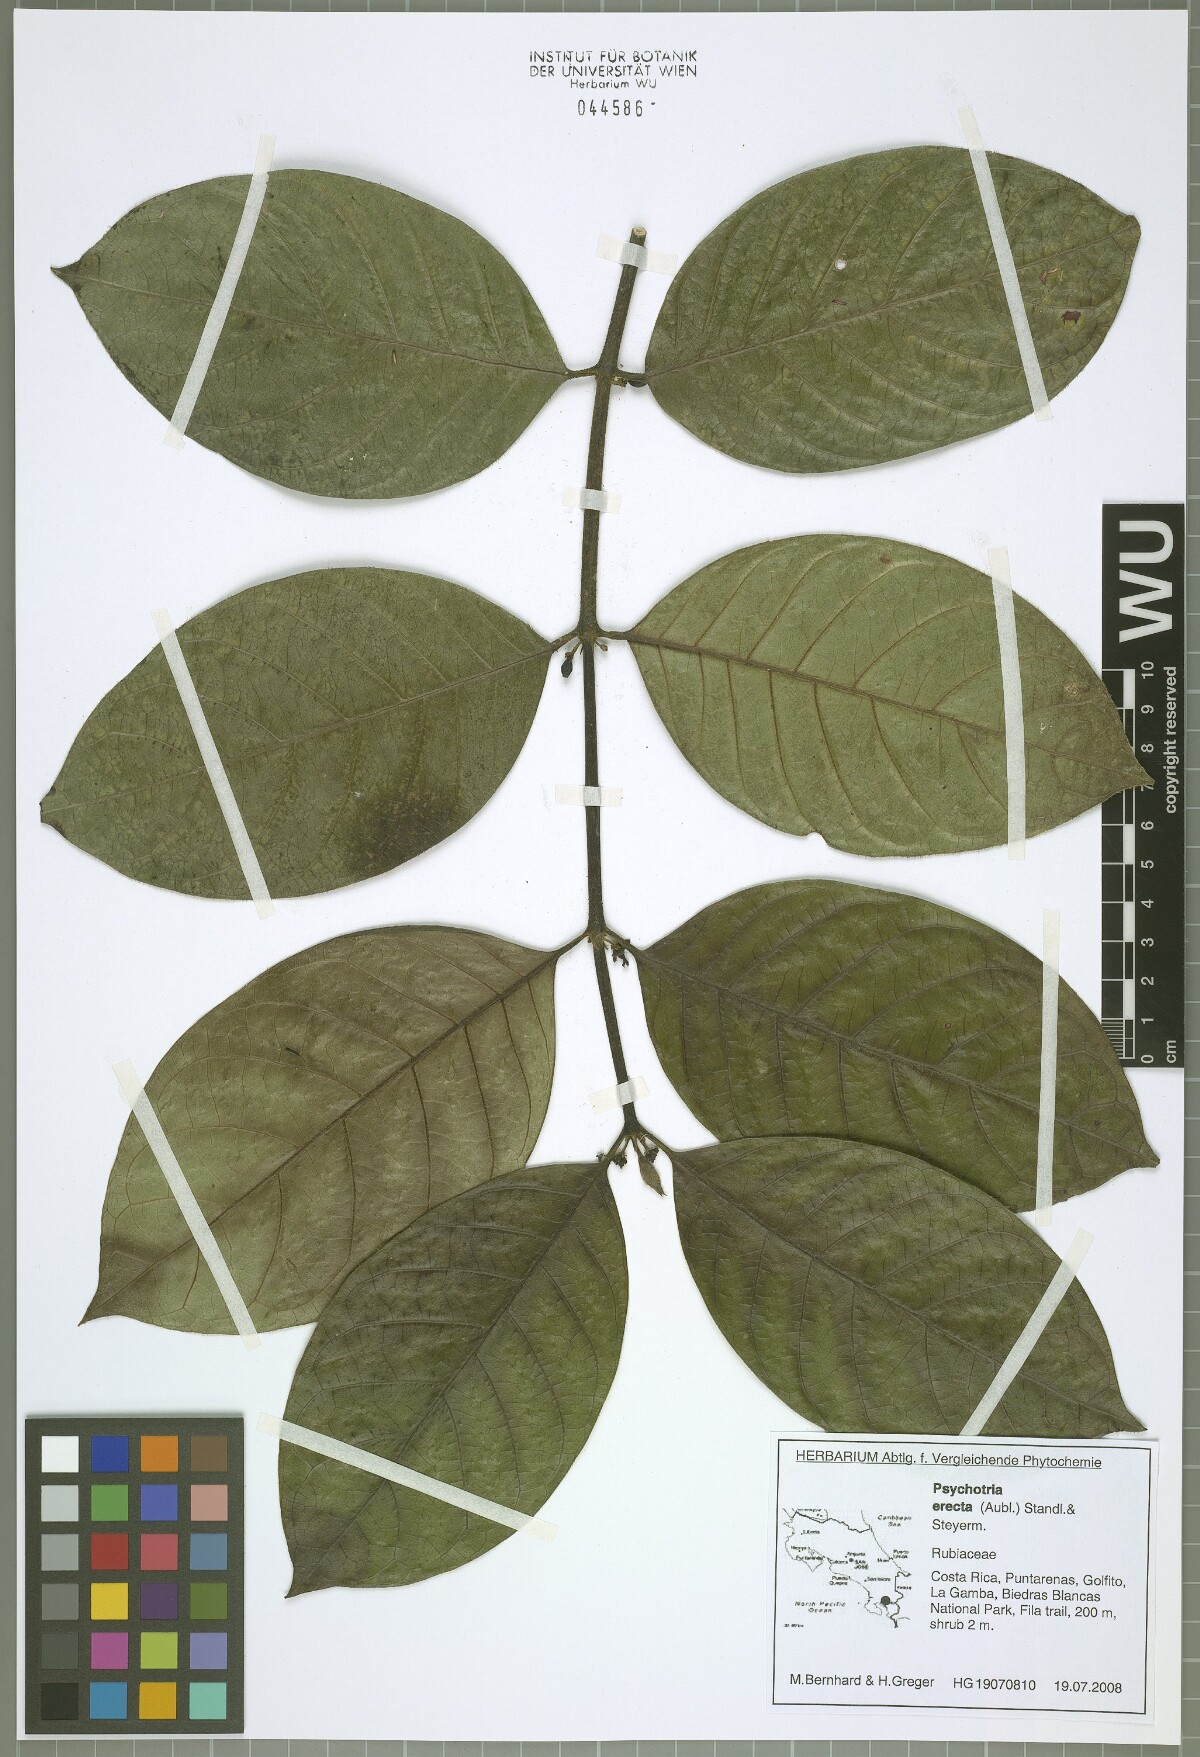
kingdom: Plantae
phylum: Tracheophyta
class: Magnoliopsida
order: Gentianales
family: Rubiaceae
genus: Ronabea
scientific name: Ronabea latifolia
